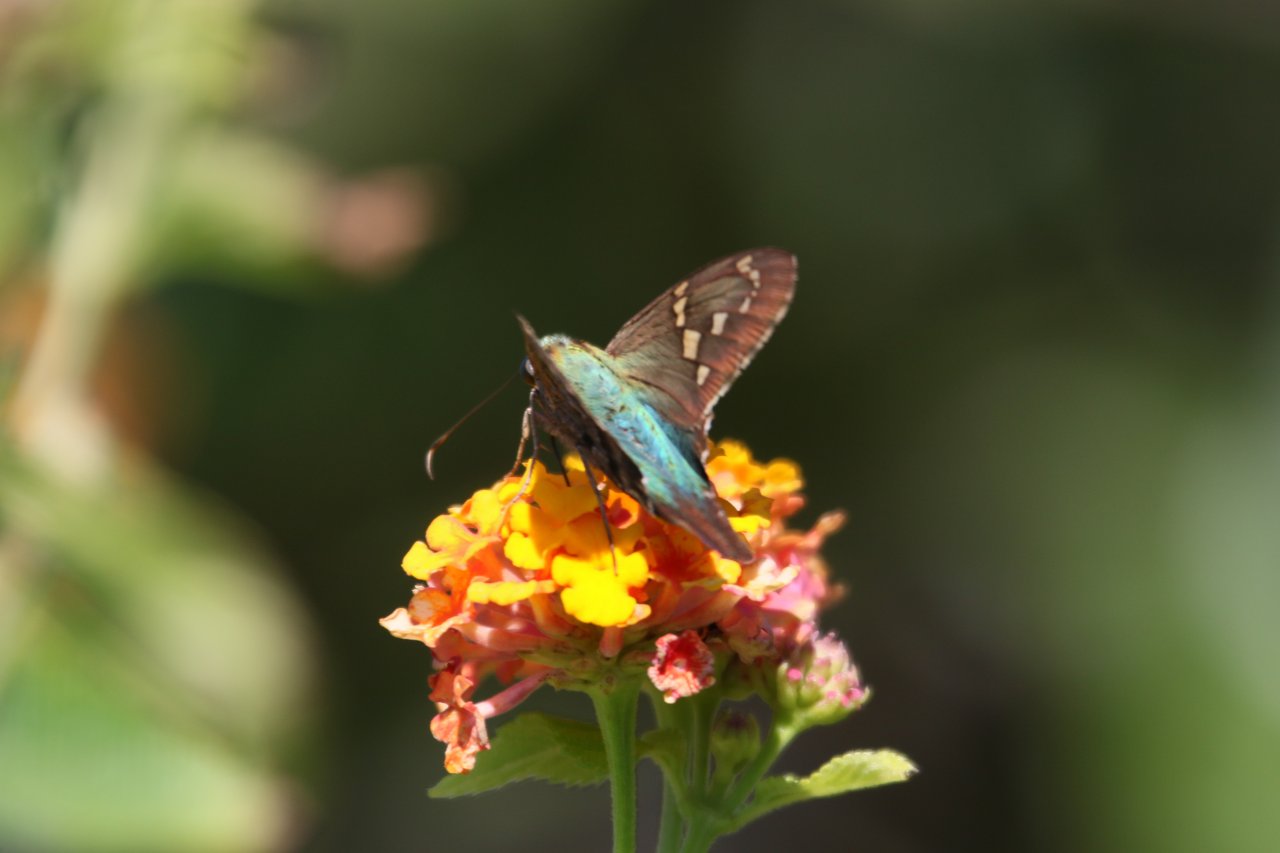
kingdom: Animalia
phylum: Arthropoda
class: Insecta
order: Lepidoptera
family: Hesperiidae
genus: Urbanus
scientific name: Urbanus proteus
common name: Long-tailed Skipper
